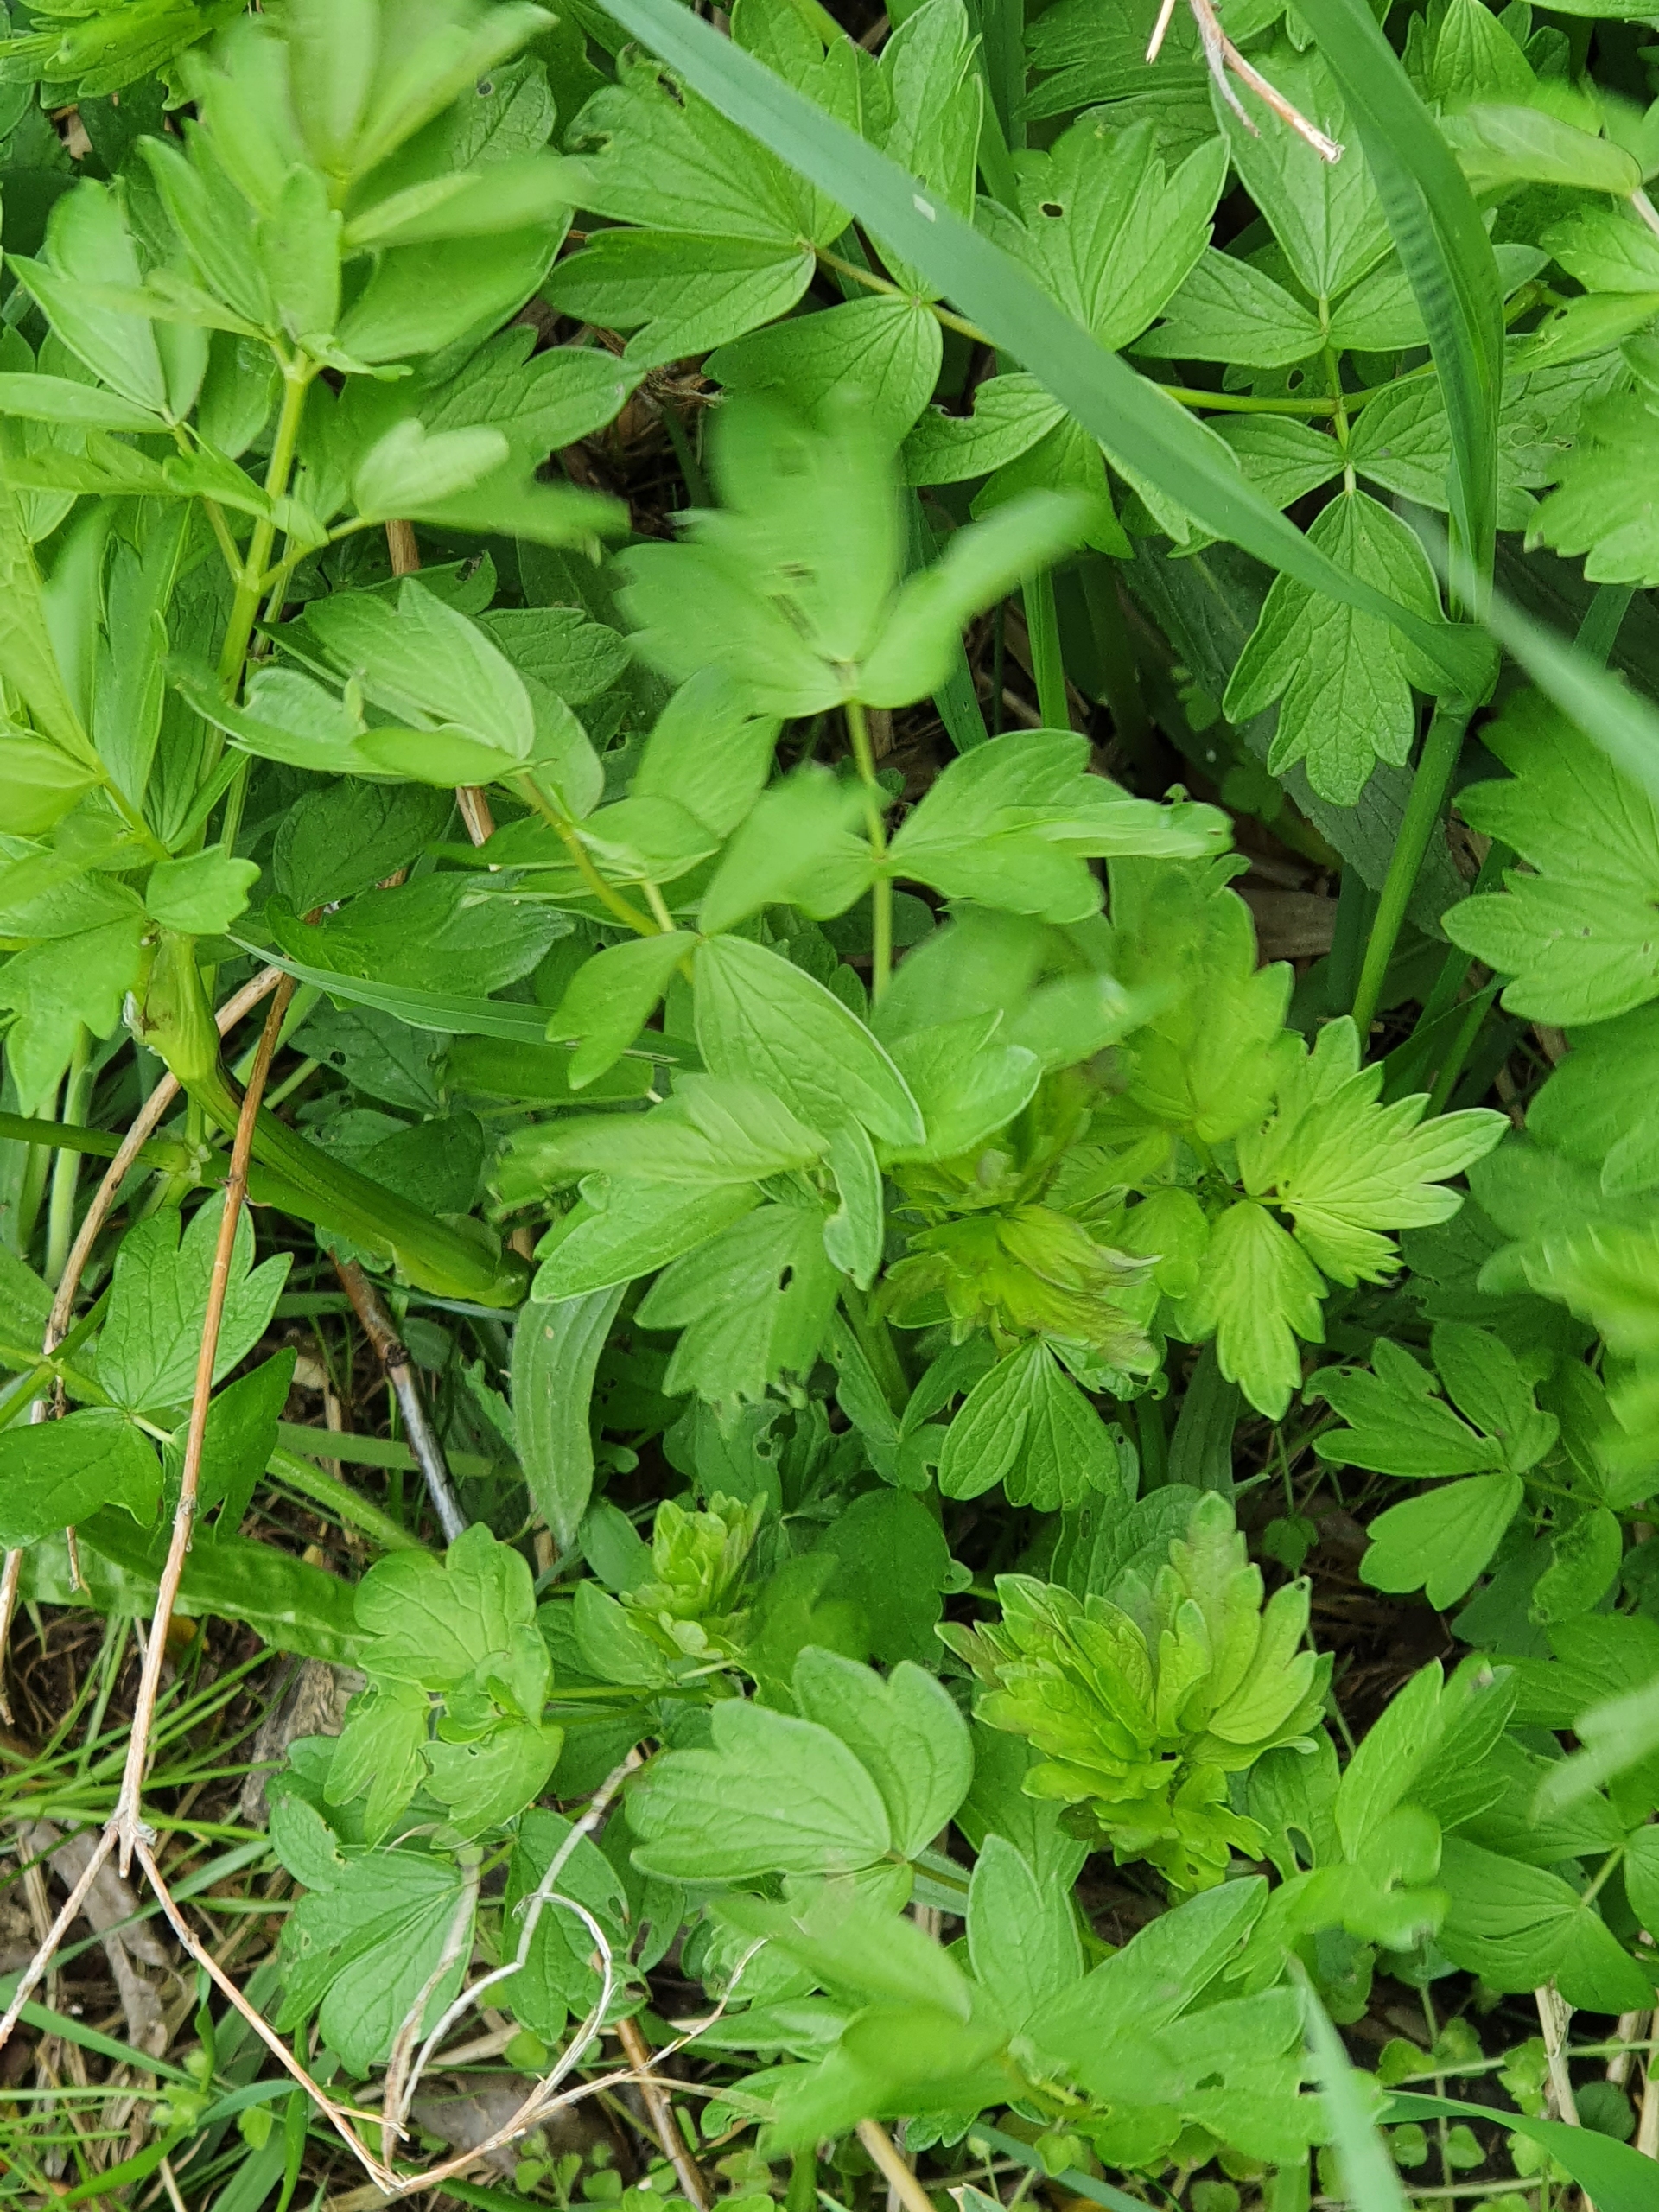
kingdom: Plantae
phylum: Tracheophyta
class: Magnoliopsida
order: Ranunculales
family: Ranunculaceae
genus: Thalictrum
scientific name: Thalictrum flavum
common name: Gul frøstjerne
